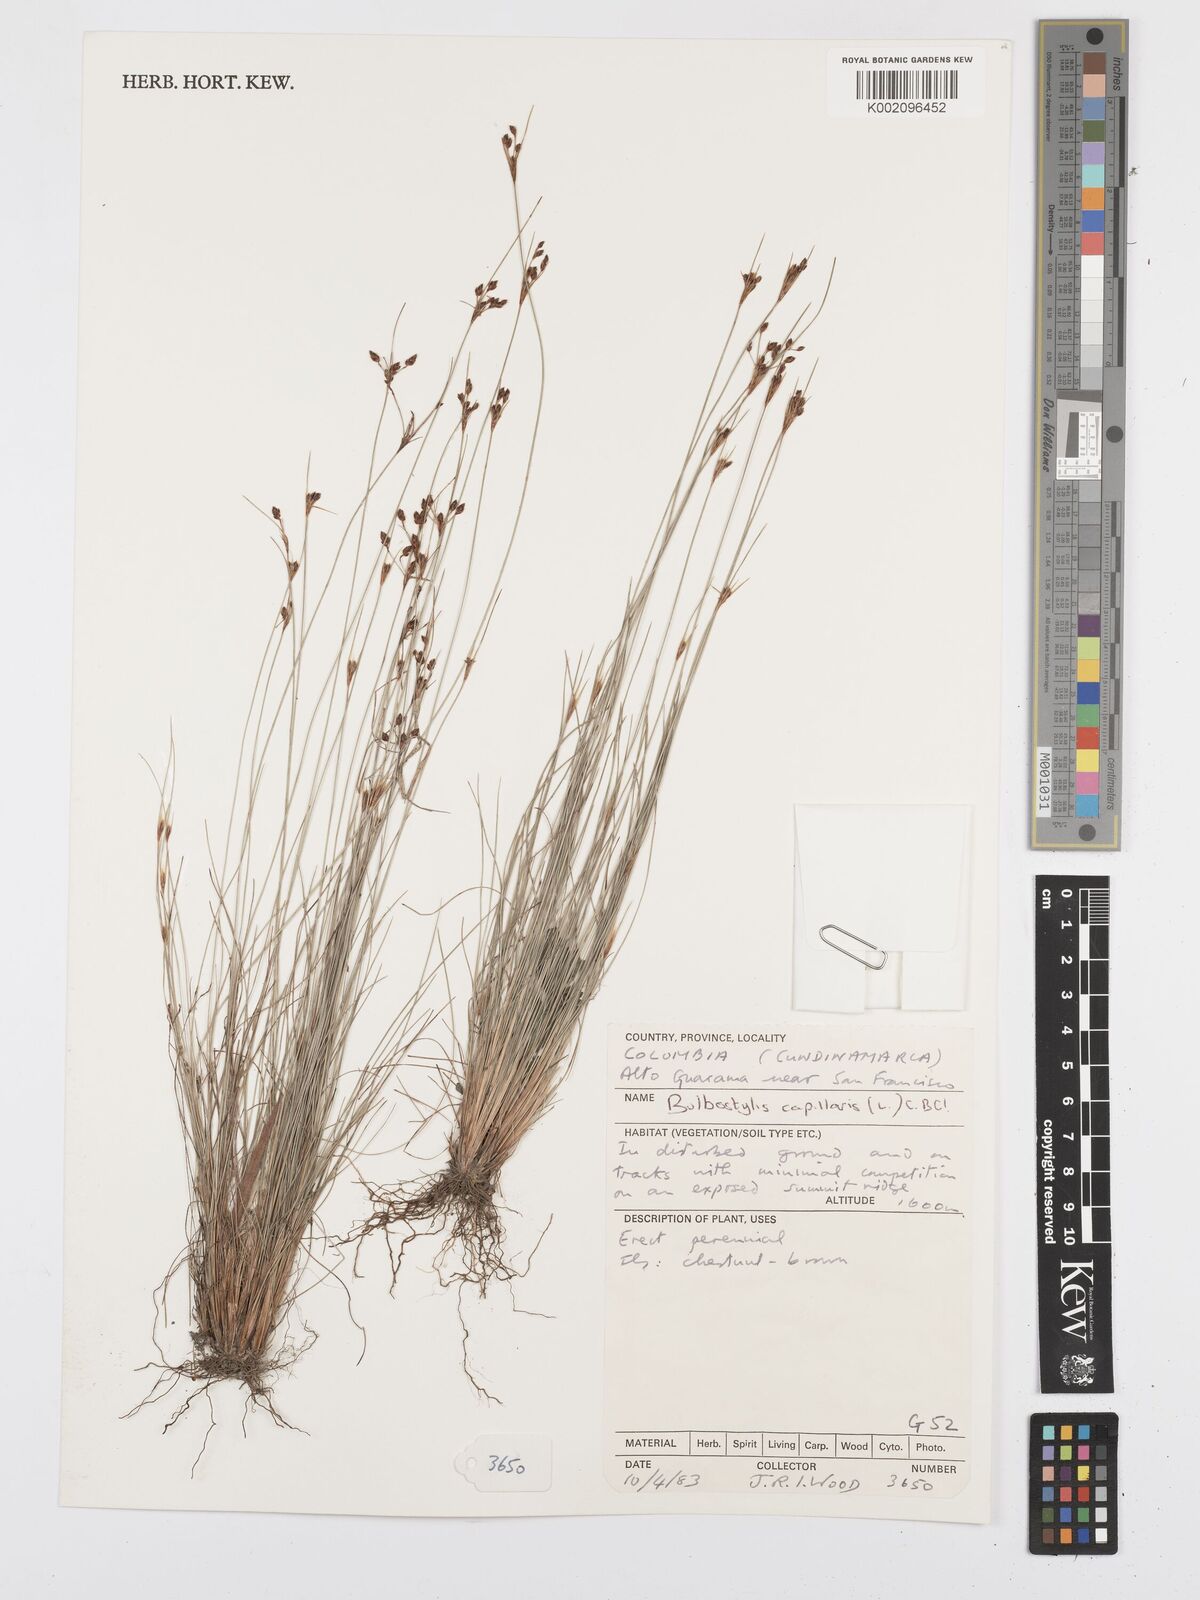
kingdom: Plantae
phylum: Tracheophyta
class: Liliopsida
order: Poales
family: Cyperaceae
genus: Bulbostylis
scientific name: Bulbostylis capillaris
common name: Densetuft hairsedge
